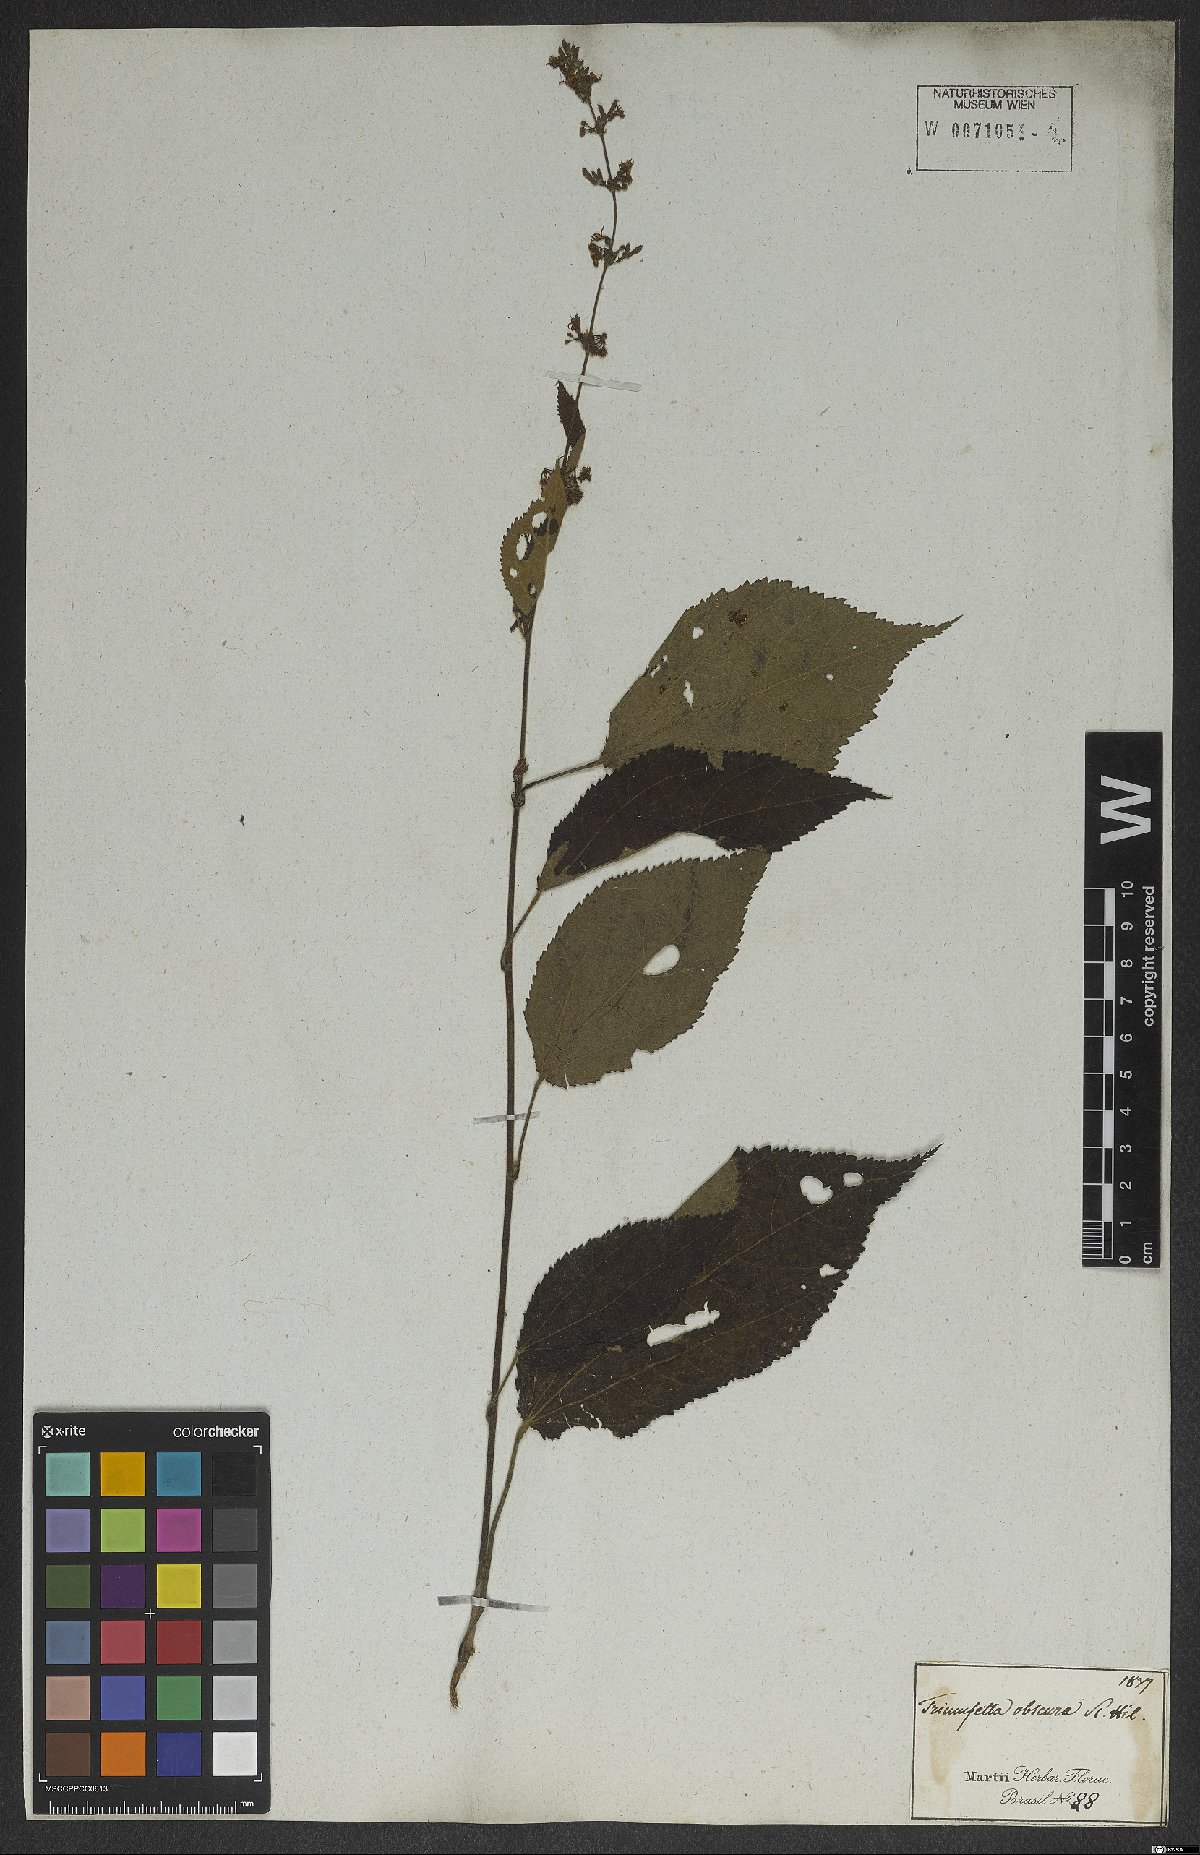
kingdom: Plantae
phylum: Tracheophyta
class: Magnoliopsida
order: Malvales
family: Malvaceae
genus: Triumfetta
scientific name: Triumfetta semitriloba
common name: Sacramento burbark
